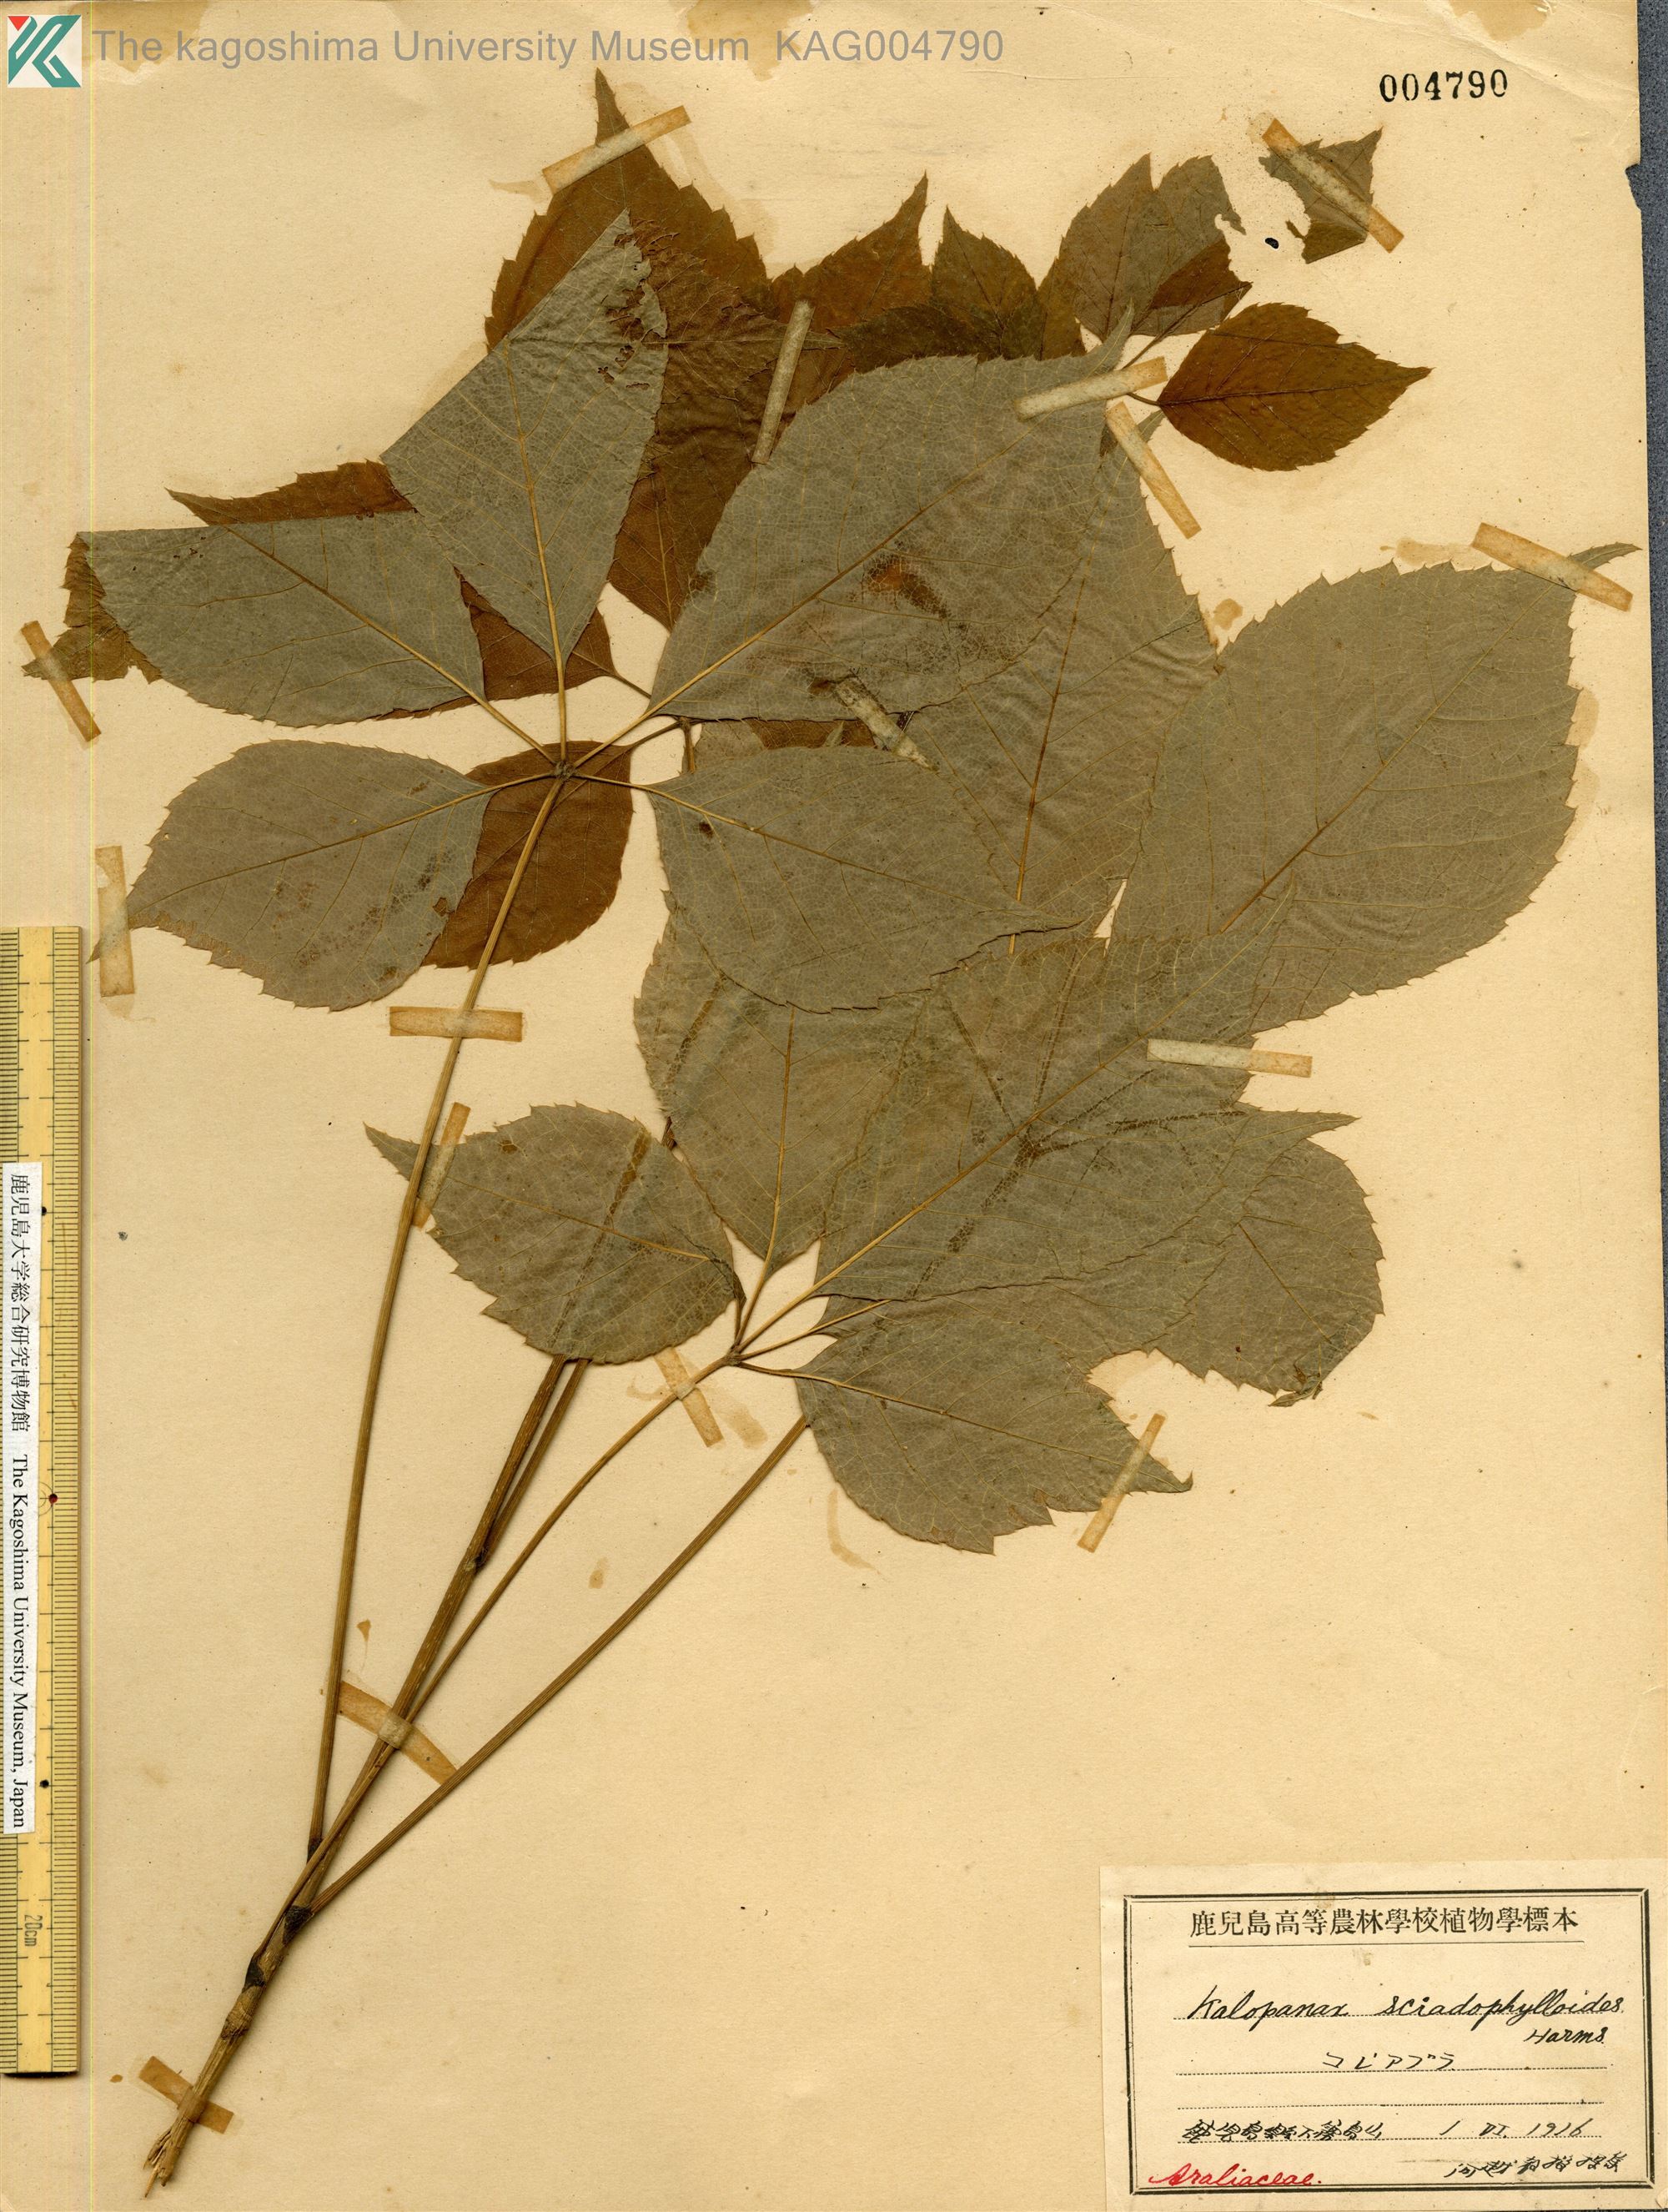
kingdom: Plantae
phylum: Tracheophyta
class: Magnoliopsida
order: Apiales
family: Araliaceae
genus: Chengiopanax
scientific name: Chengiopanax sciadophylloides
